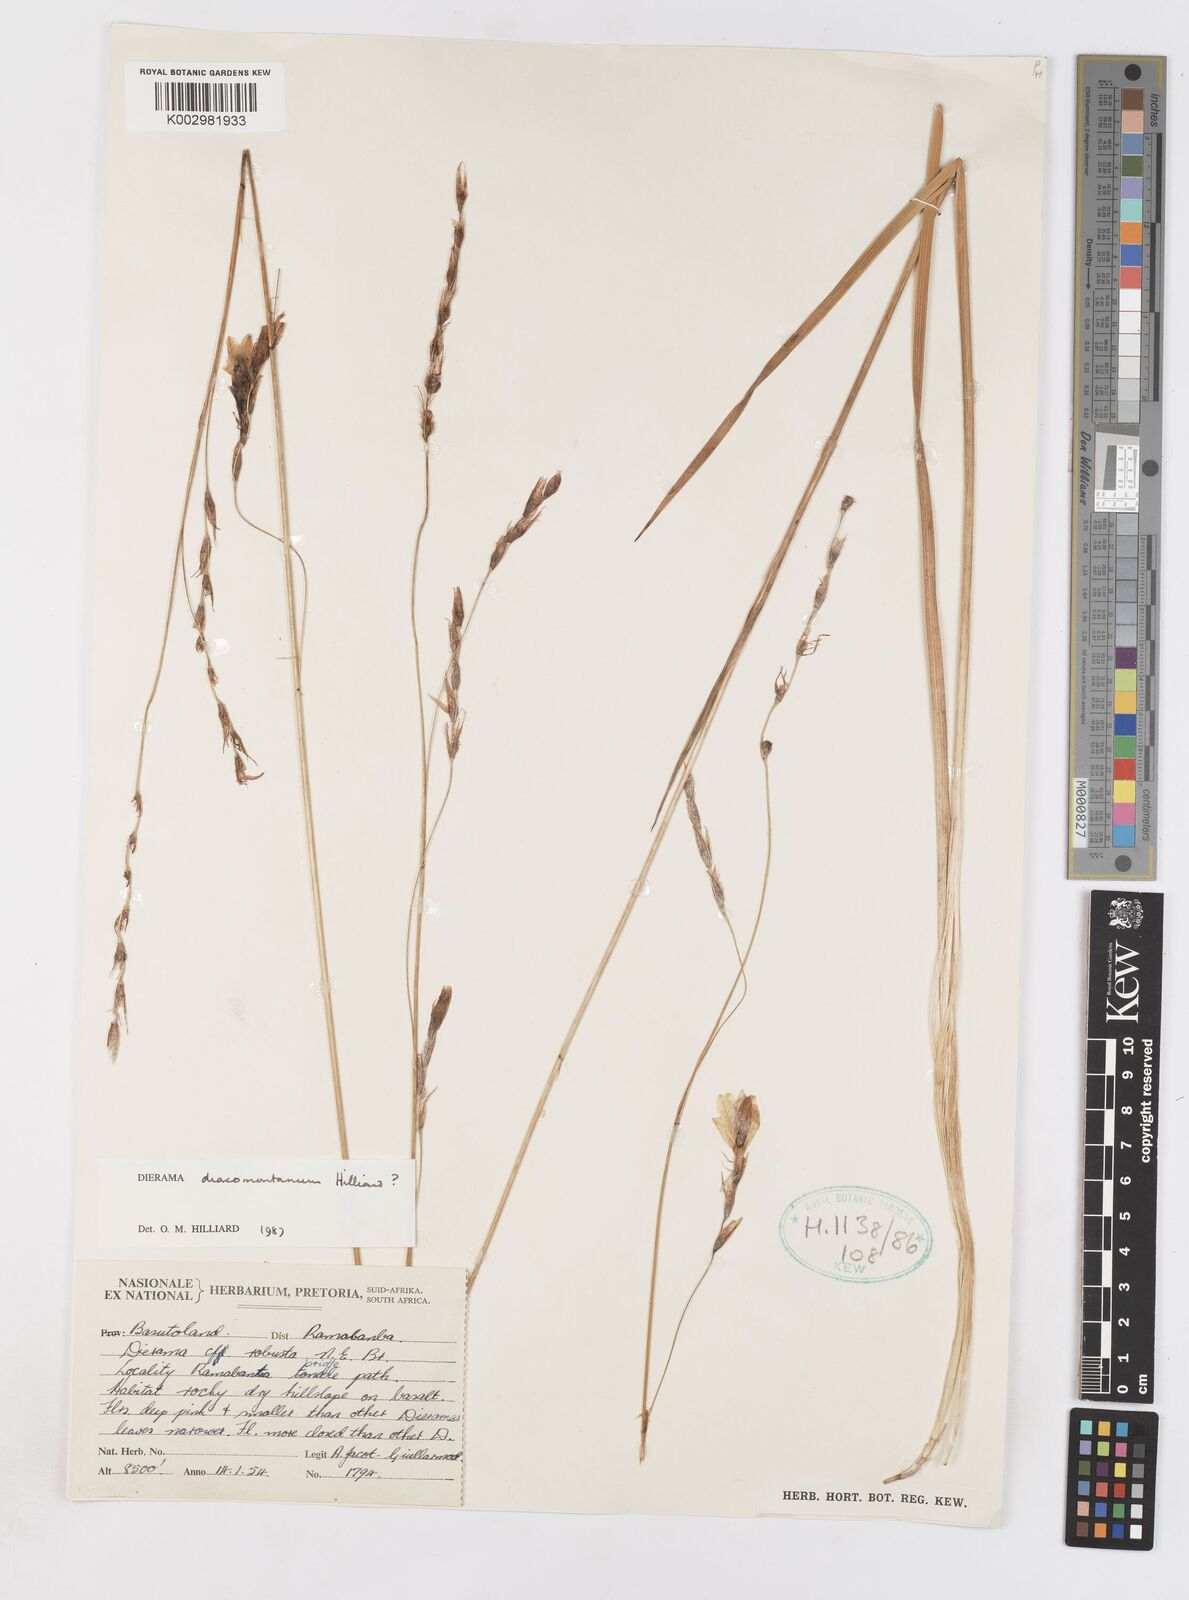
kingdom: Plantae
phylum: Tracheophyta
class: Liliopsida
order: Asparagales
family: Iridaceae
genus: Dierama
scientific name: Dierama dracomontanum
